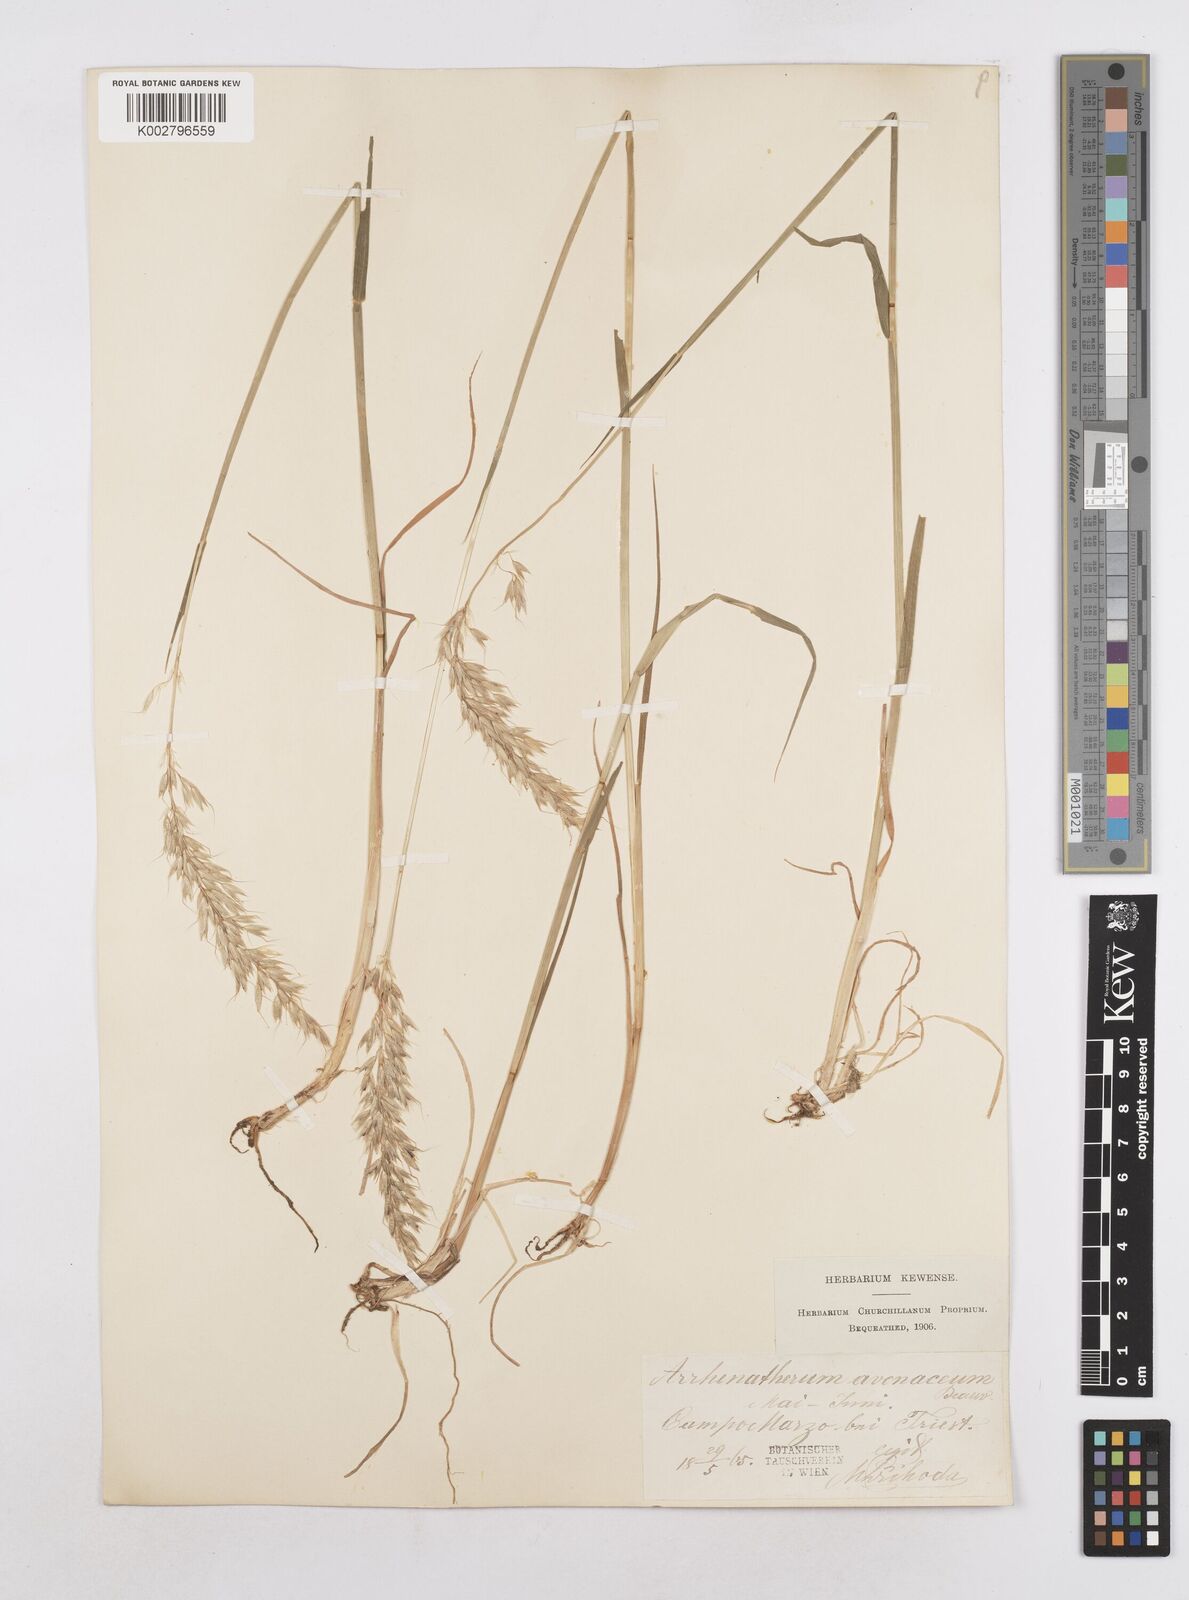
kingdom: Plantae
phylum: Tracheophyta
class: Liliopsida
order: Poales
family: Poaceae
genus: Arrhenatherum
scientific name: Arrhenatherum elatius
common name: Tall oatgrass
